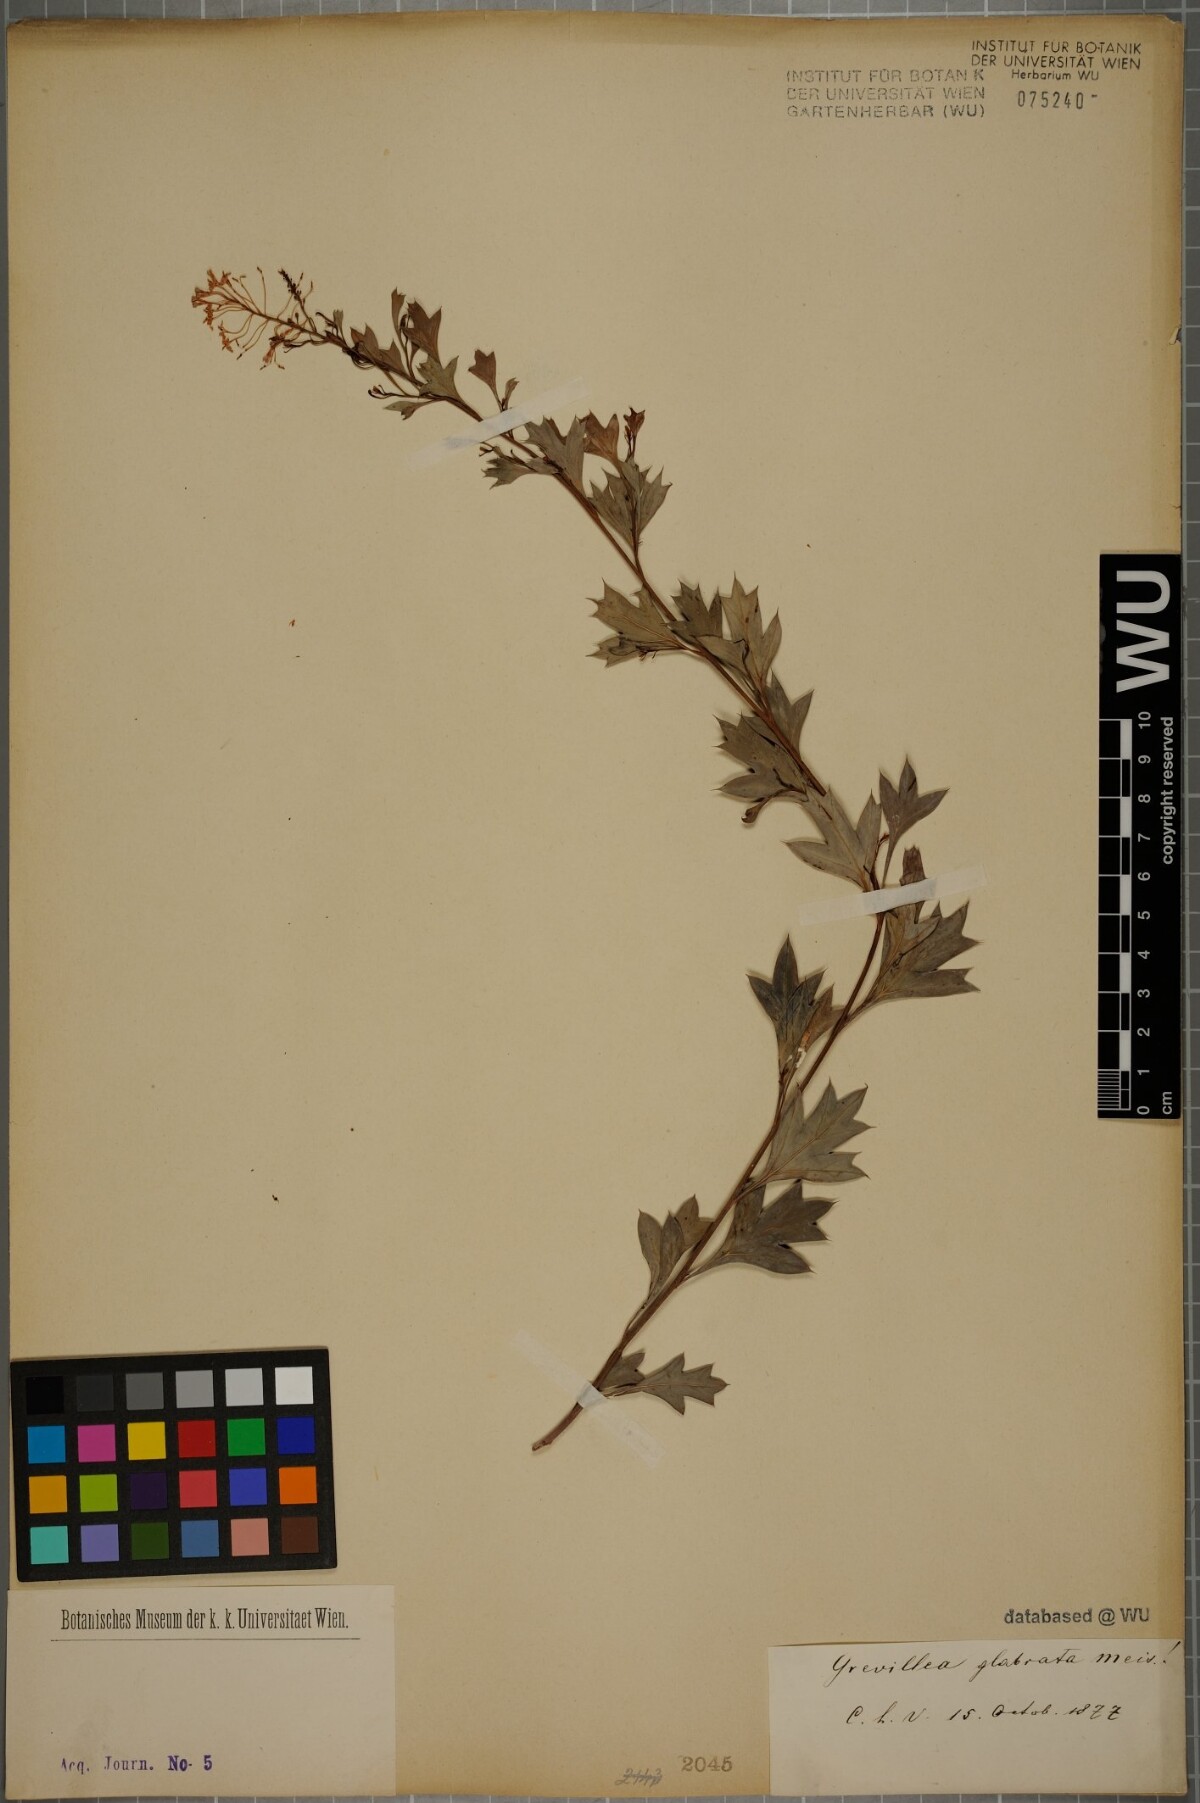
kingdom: Plantae
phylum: Tracheophyta
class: Magnoliopsida
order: Proteales
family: Proteaceae
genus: Grevillea
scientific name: Grevillea manglesii
